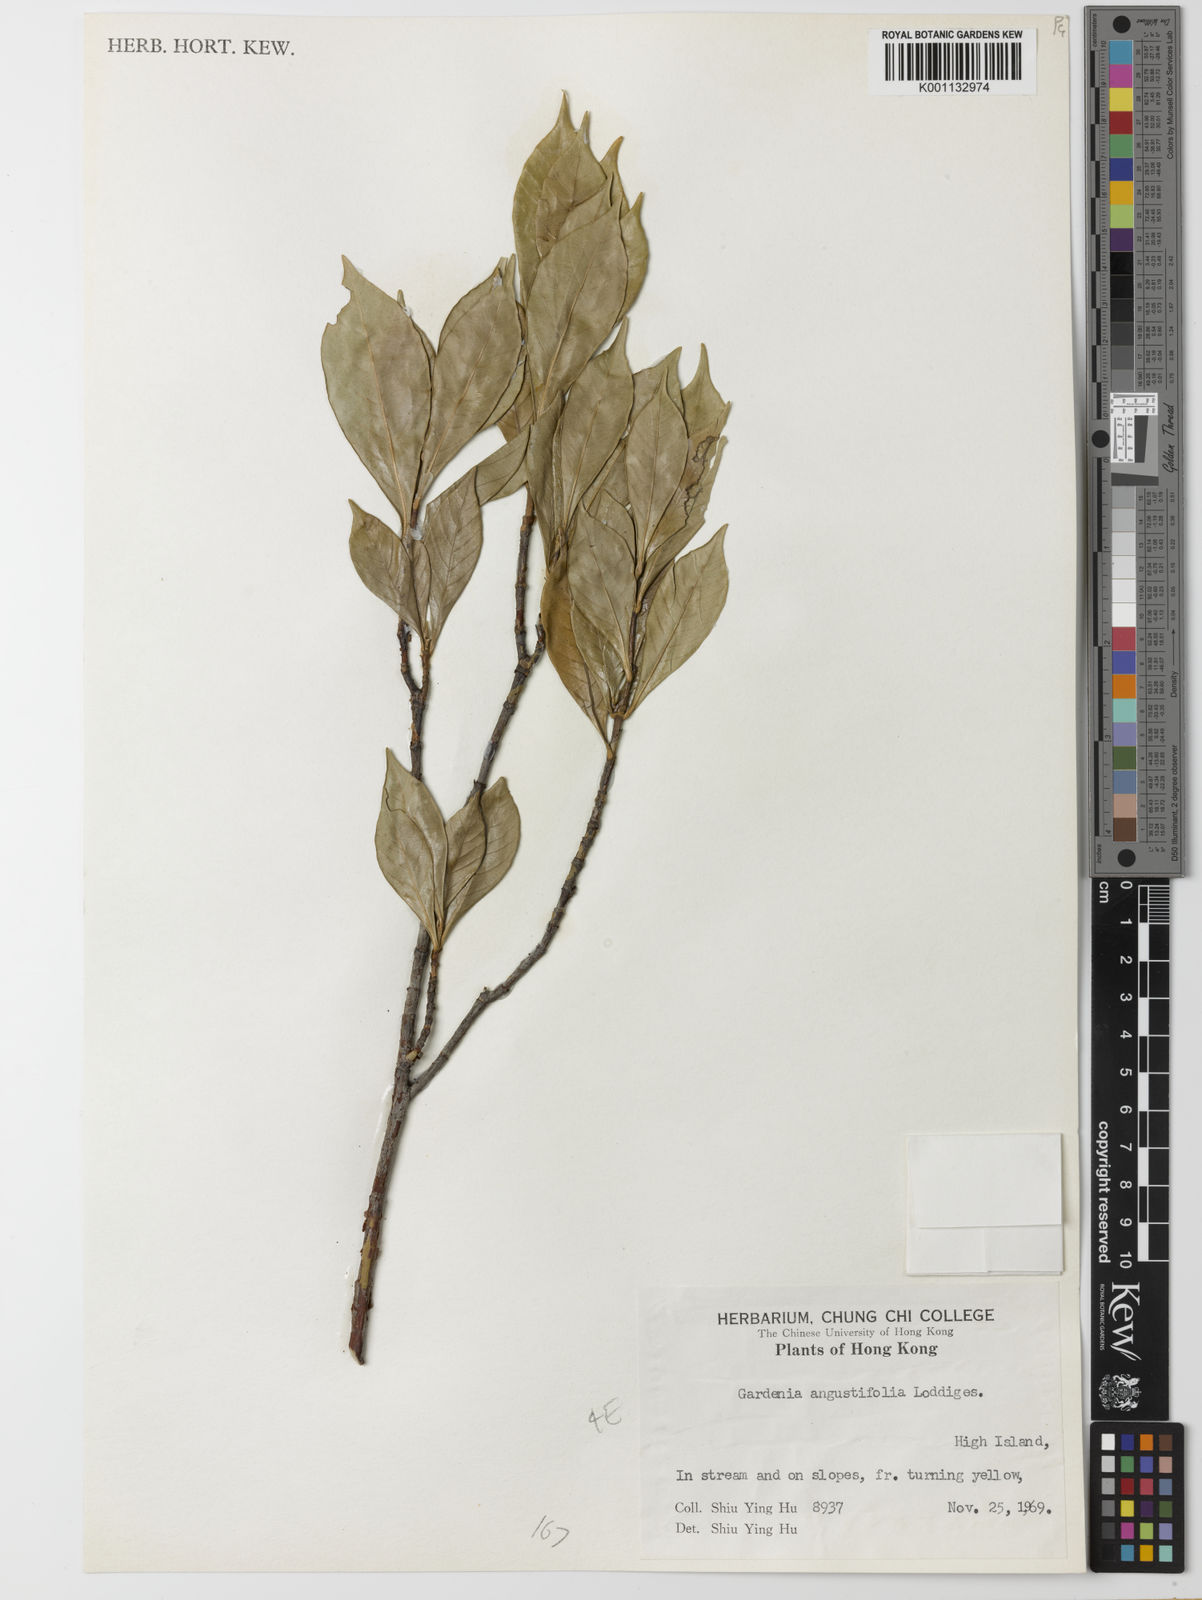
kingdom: Plantae
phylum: Tracheophyta
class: Magnoliopsida
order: Gentianales
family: Rubiaceae
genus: Gardenia
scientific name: Gardenia jasminoides
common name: Cape-jasmine
